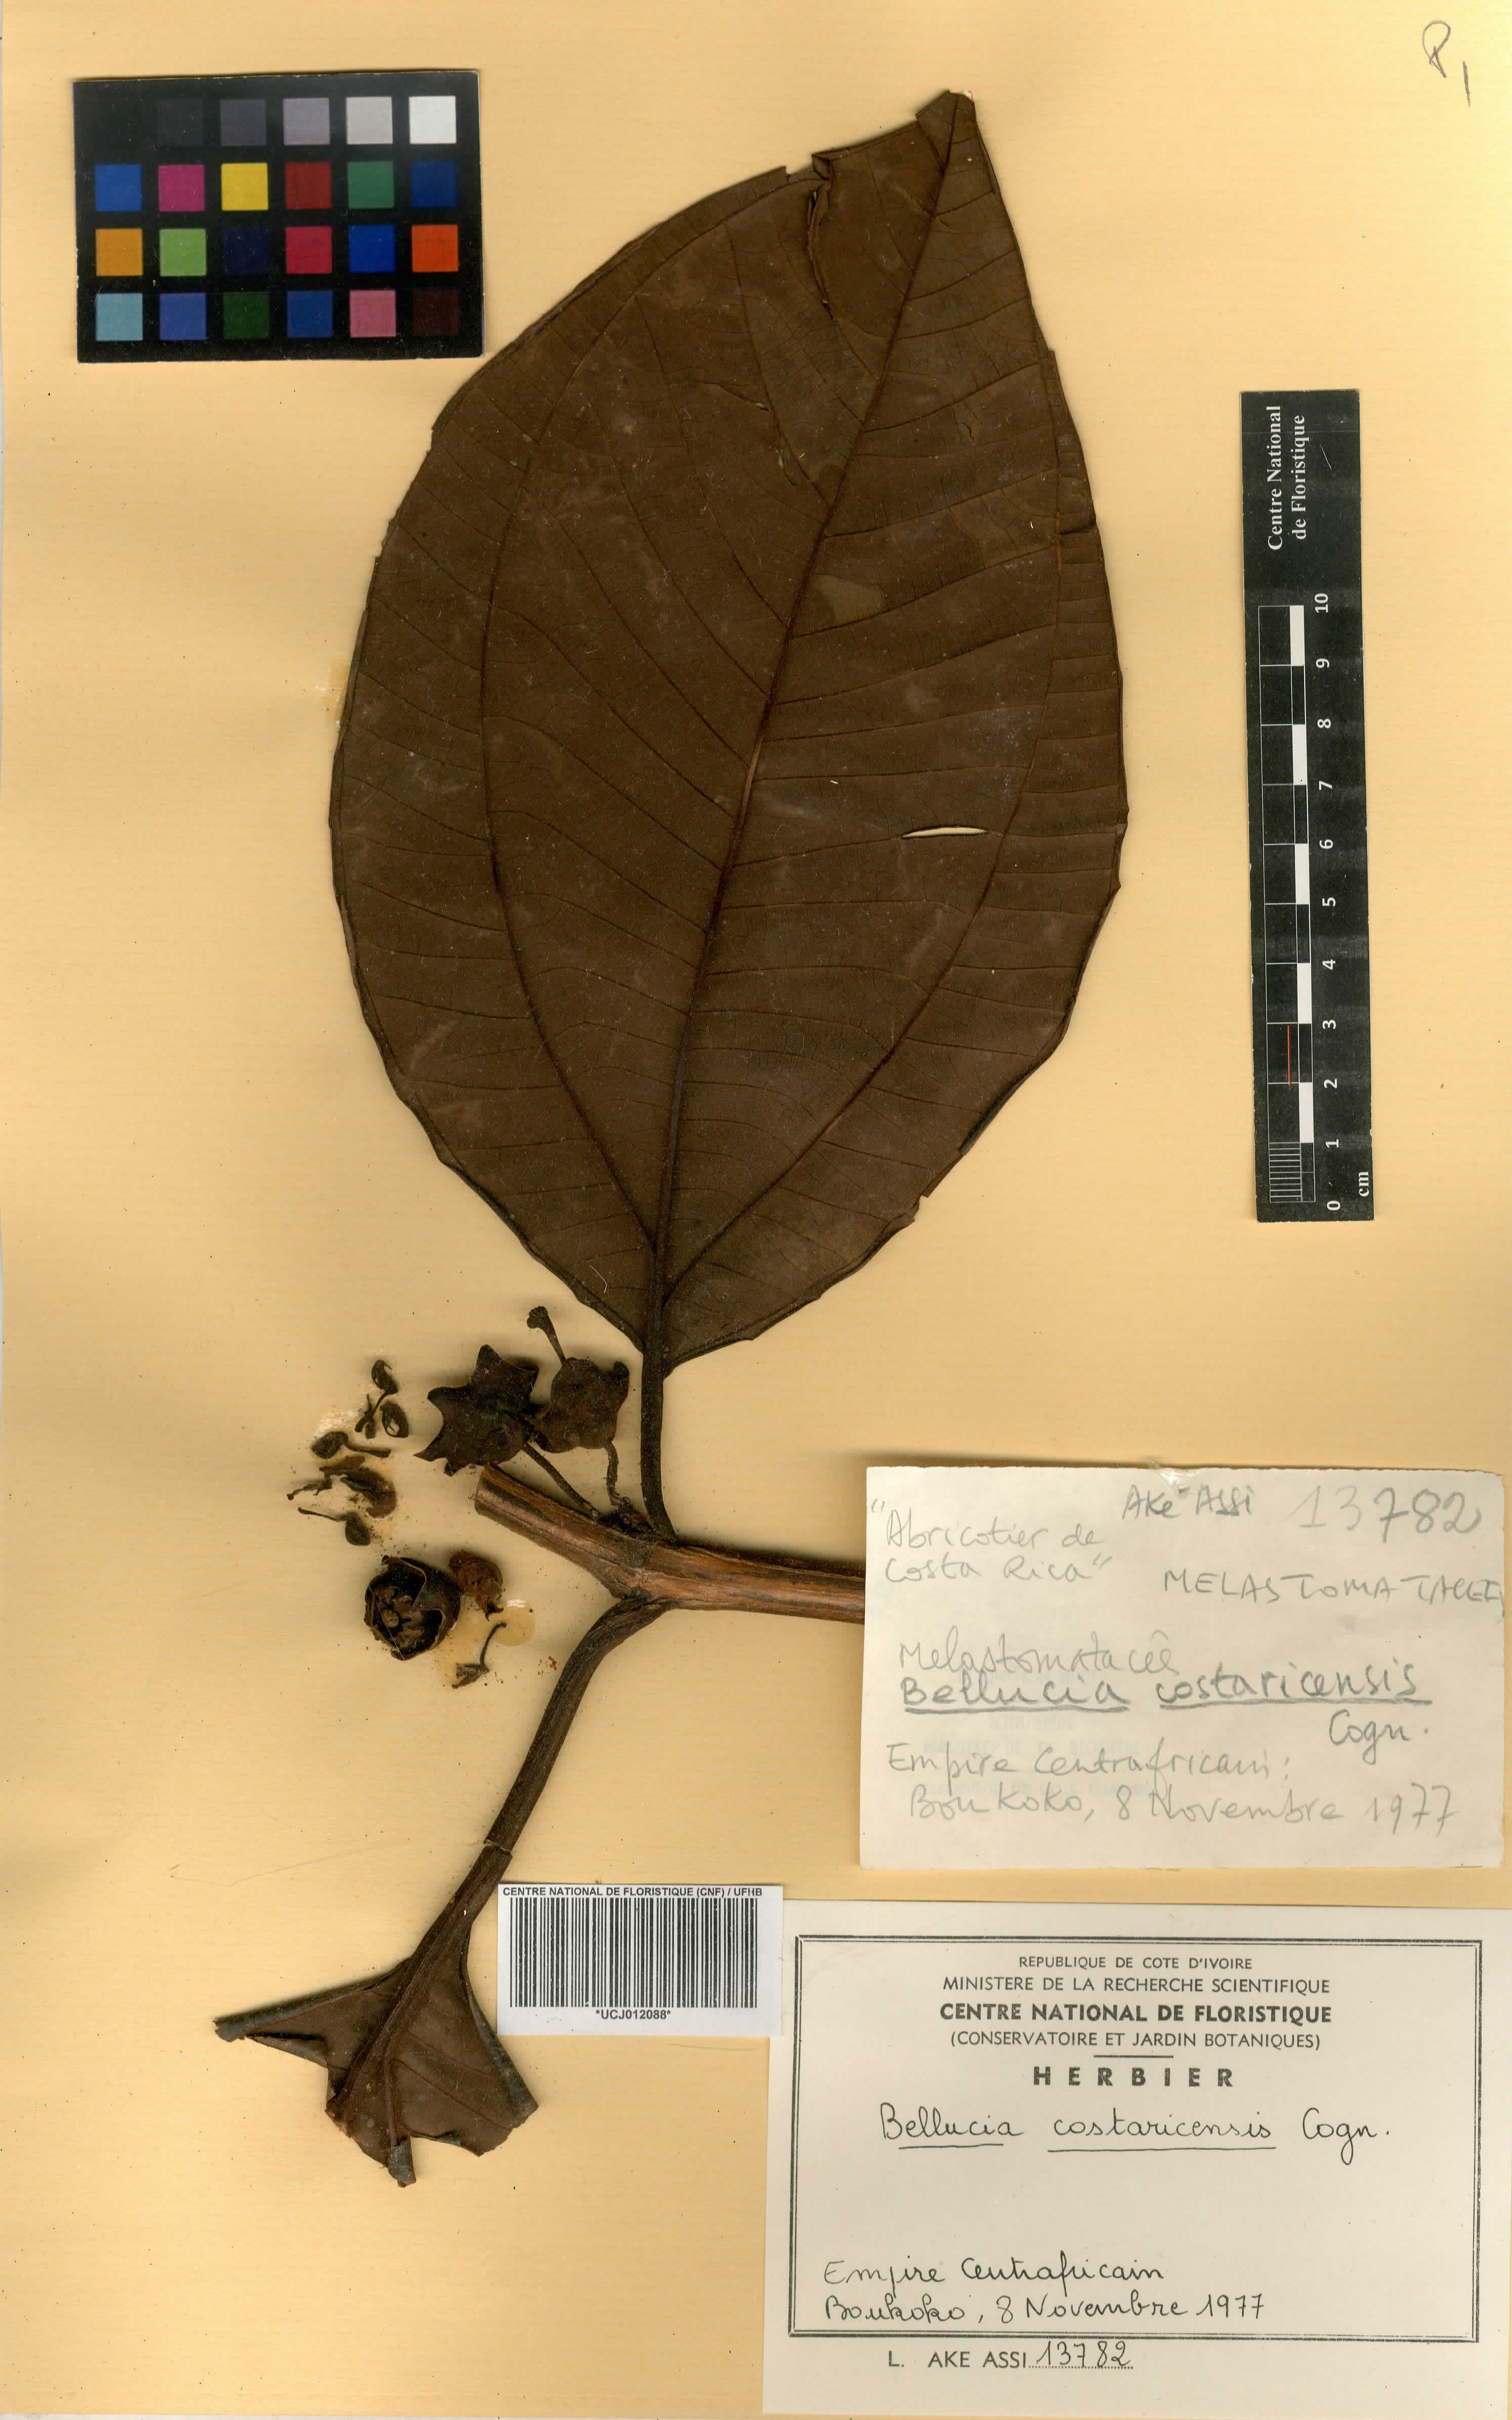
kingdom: Plantae
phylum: Tracheophyta
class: Magnoliopsida
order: Myrtales
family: Melastomataceae
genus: Bellucia
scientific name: Bellucia pentamera
